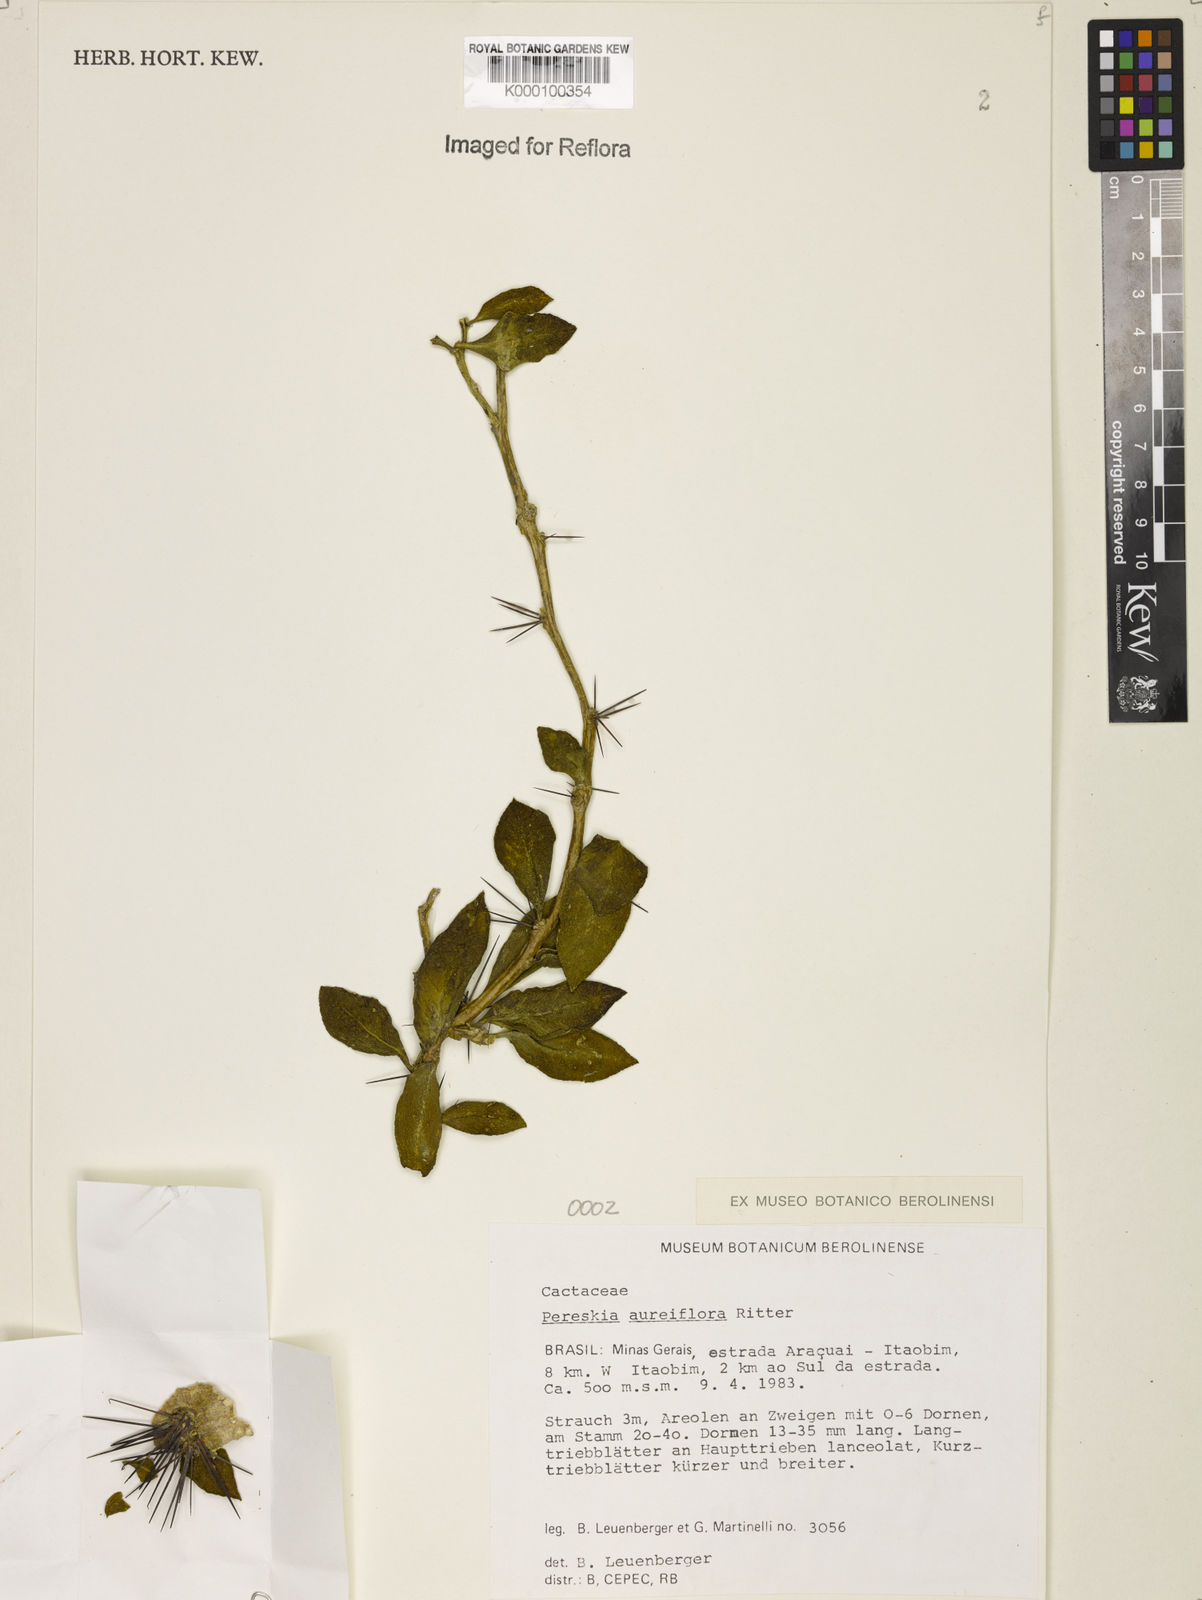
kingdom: Plantae
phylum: Tracheophyta
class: Magnoliopsida
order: Caryophyllales
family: Cactaceae
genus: Leuenbergeria
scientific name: Leuenbergeria aureiflora
